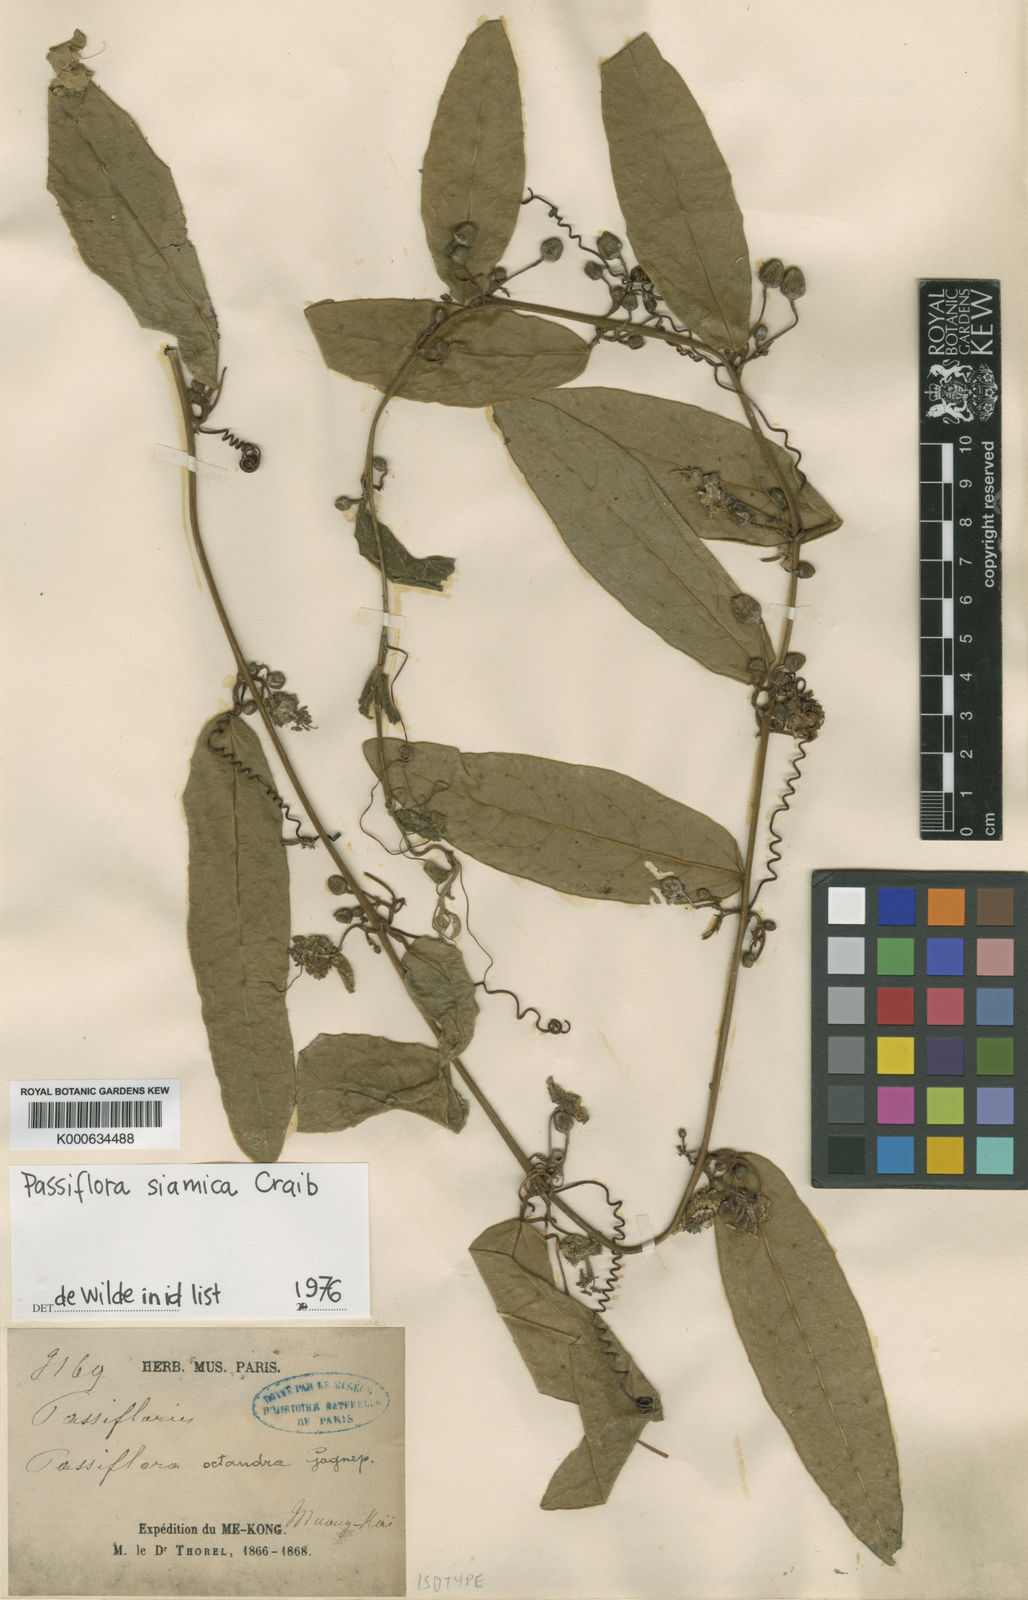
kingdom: Plantae
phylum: Tracheophyta
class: Magnoliopsida
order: Malpighiales
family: Passifloraceae
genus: Passiflora
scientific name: Passiflora siamica
